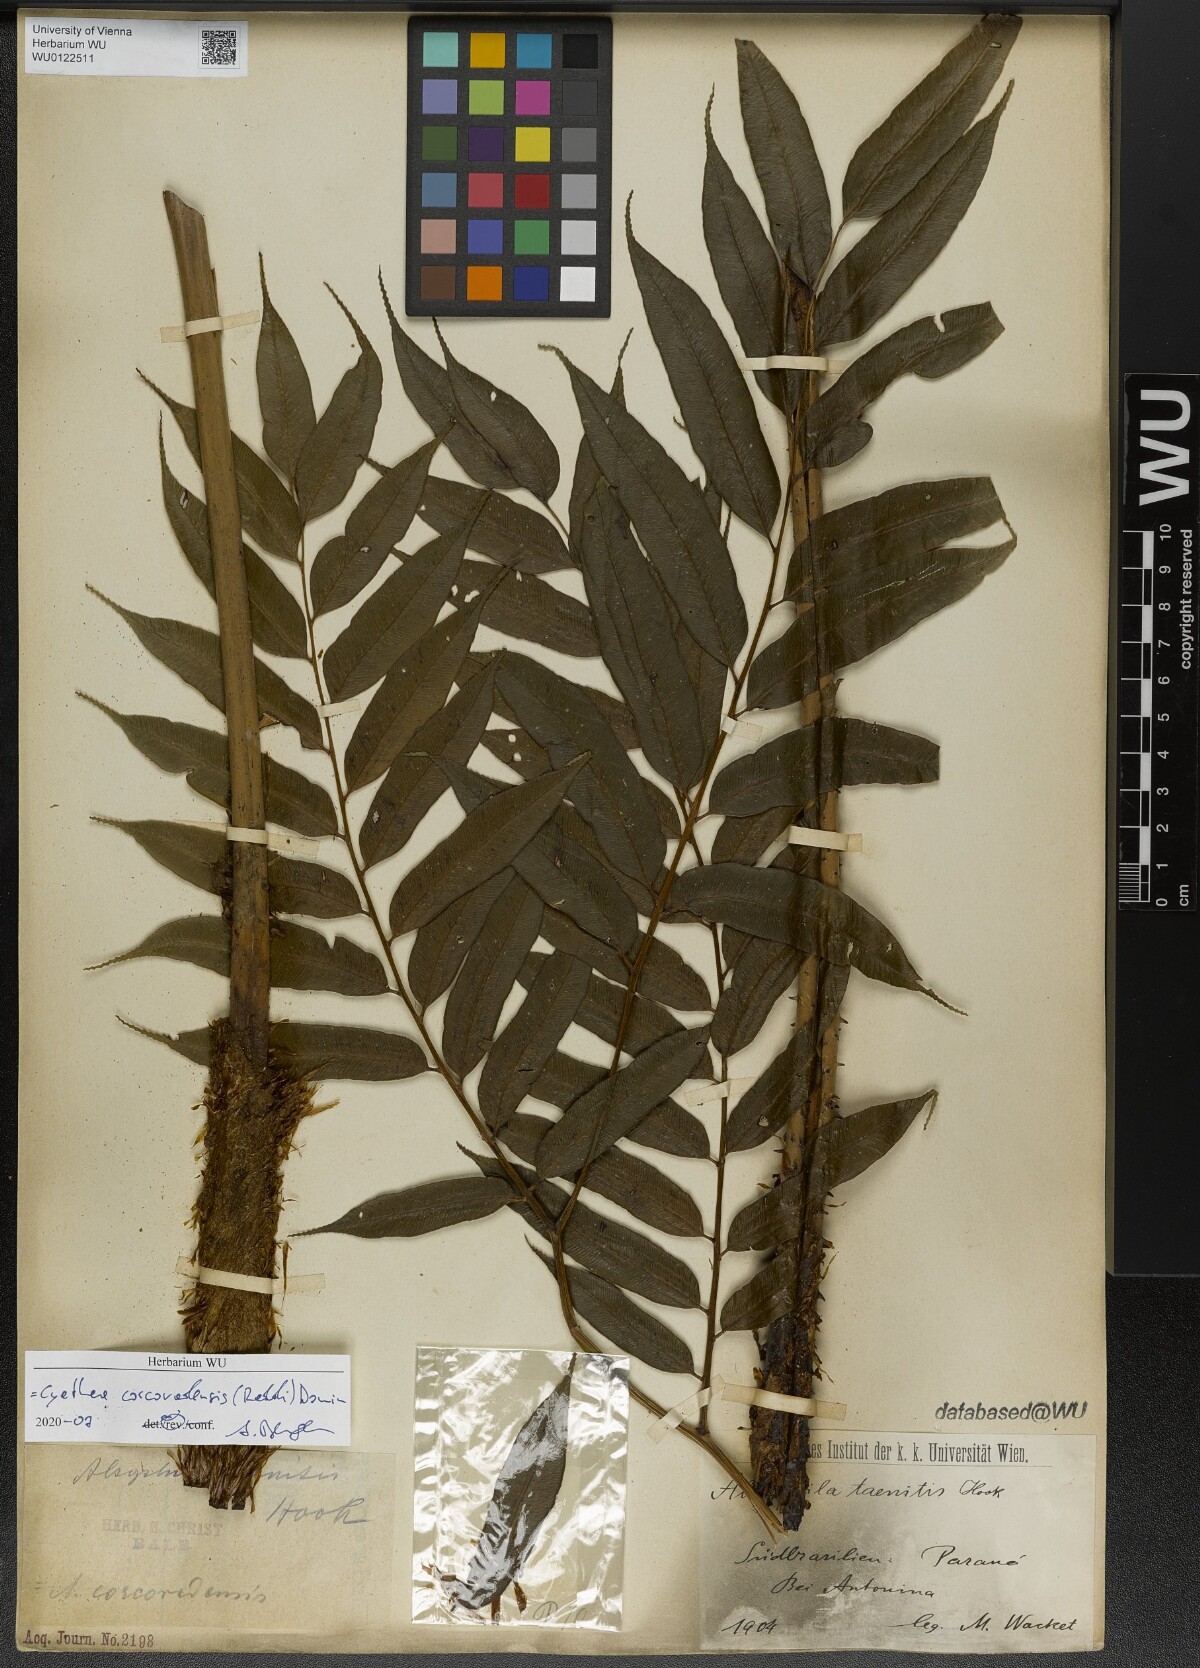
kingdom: Plantae
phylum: Tracheophyta
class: Polypodiopsida
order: Cyatheales
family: Cyatheaceae
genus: Cyathea
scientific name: Cyathea corcovadensis
